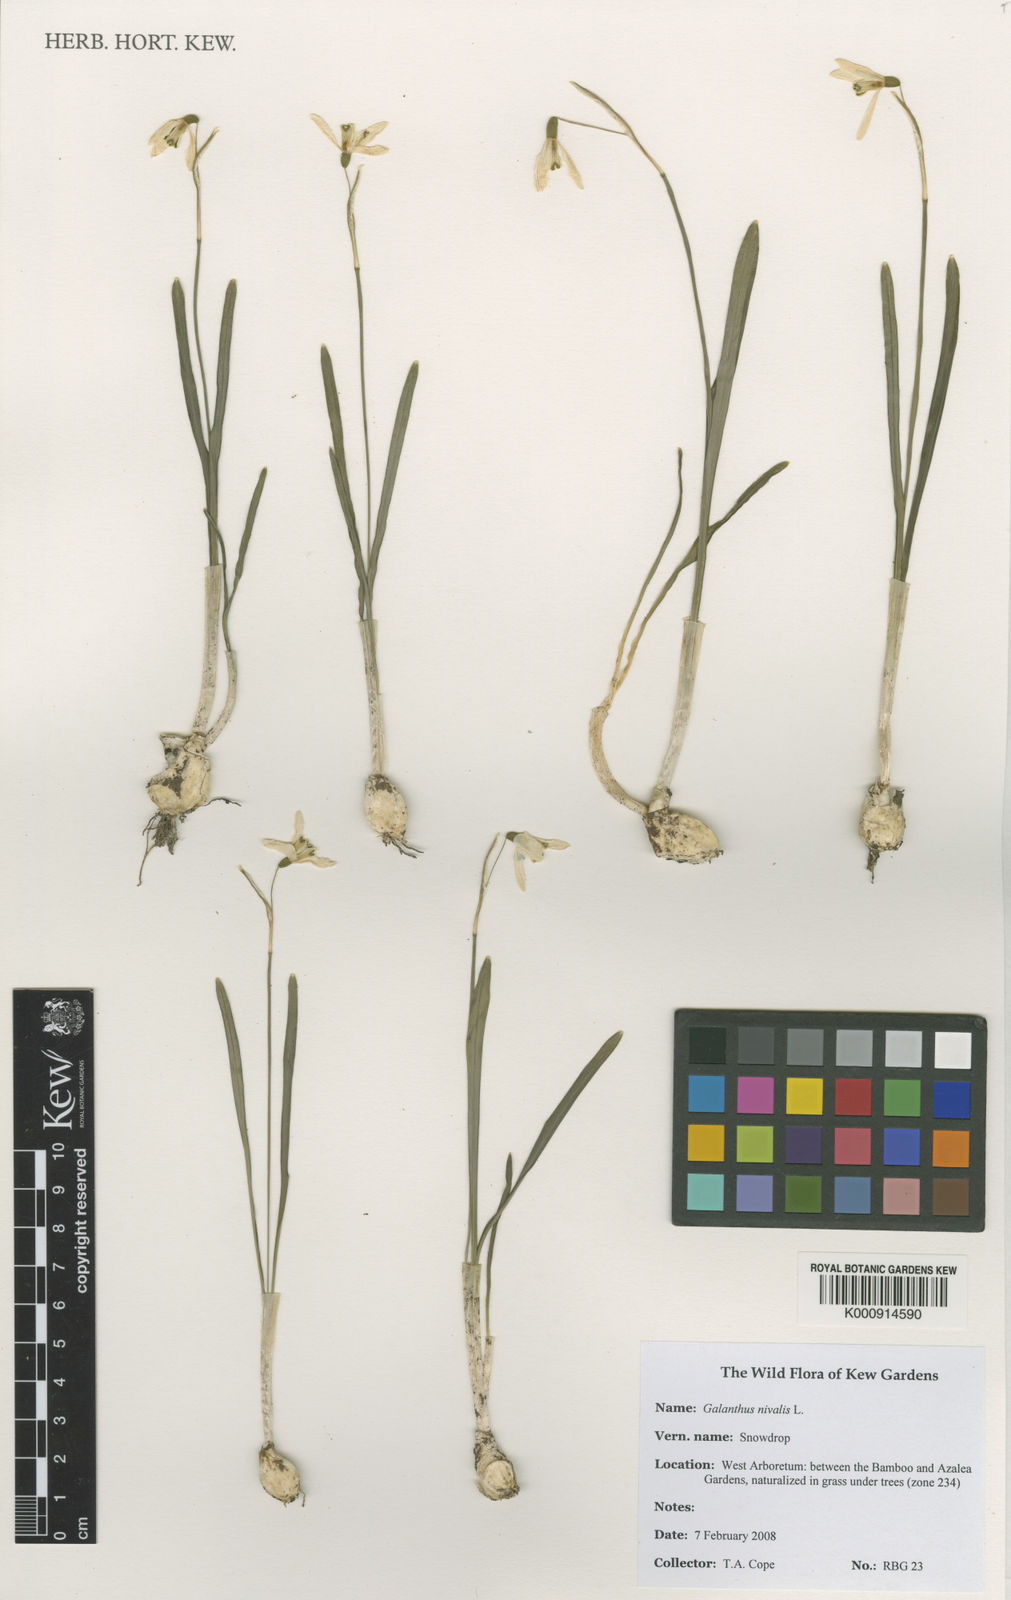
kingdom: Plantae
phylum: Tracheophyta
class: Liliopsida
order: Asparagales
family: Amaryllidaceae
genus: Galanthus
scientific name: Galanthus nivalis
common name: Snowdrop
